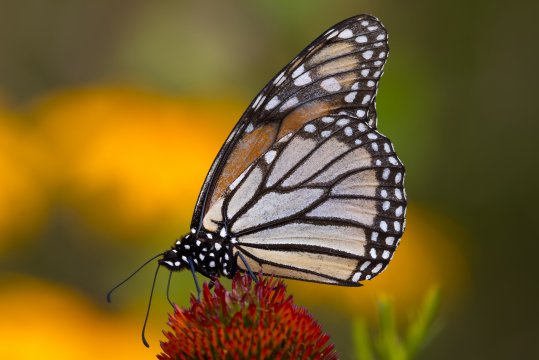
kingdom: Animalia
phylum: Arthropoda
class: Insecta
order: Lepidoptera
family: Nymphalidae
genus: Danaus
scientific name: Danaus plexippus
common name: Monarch
